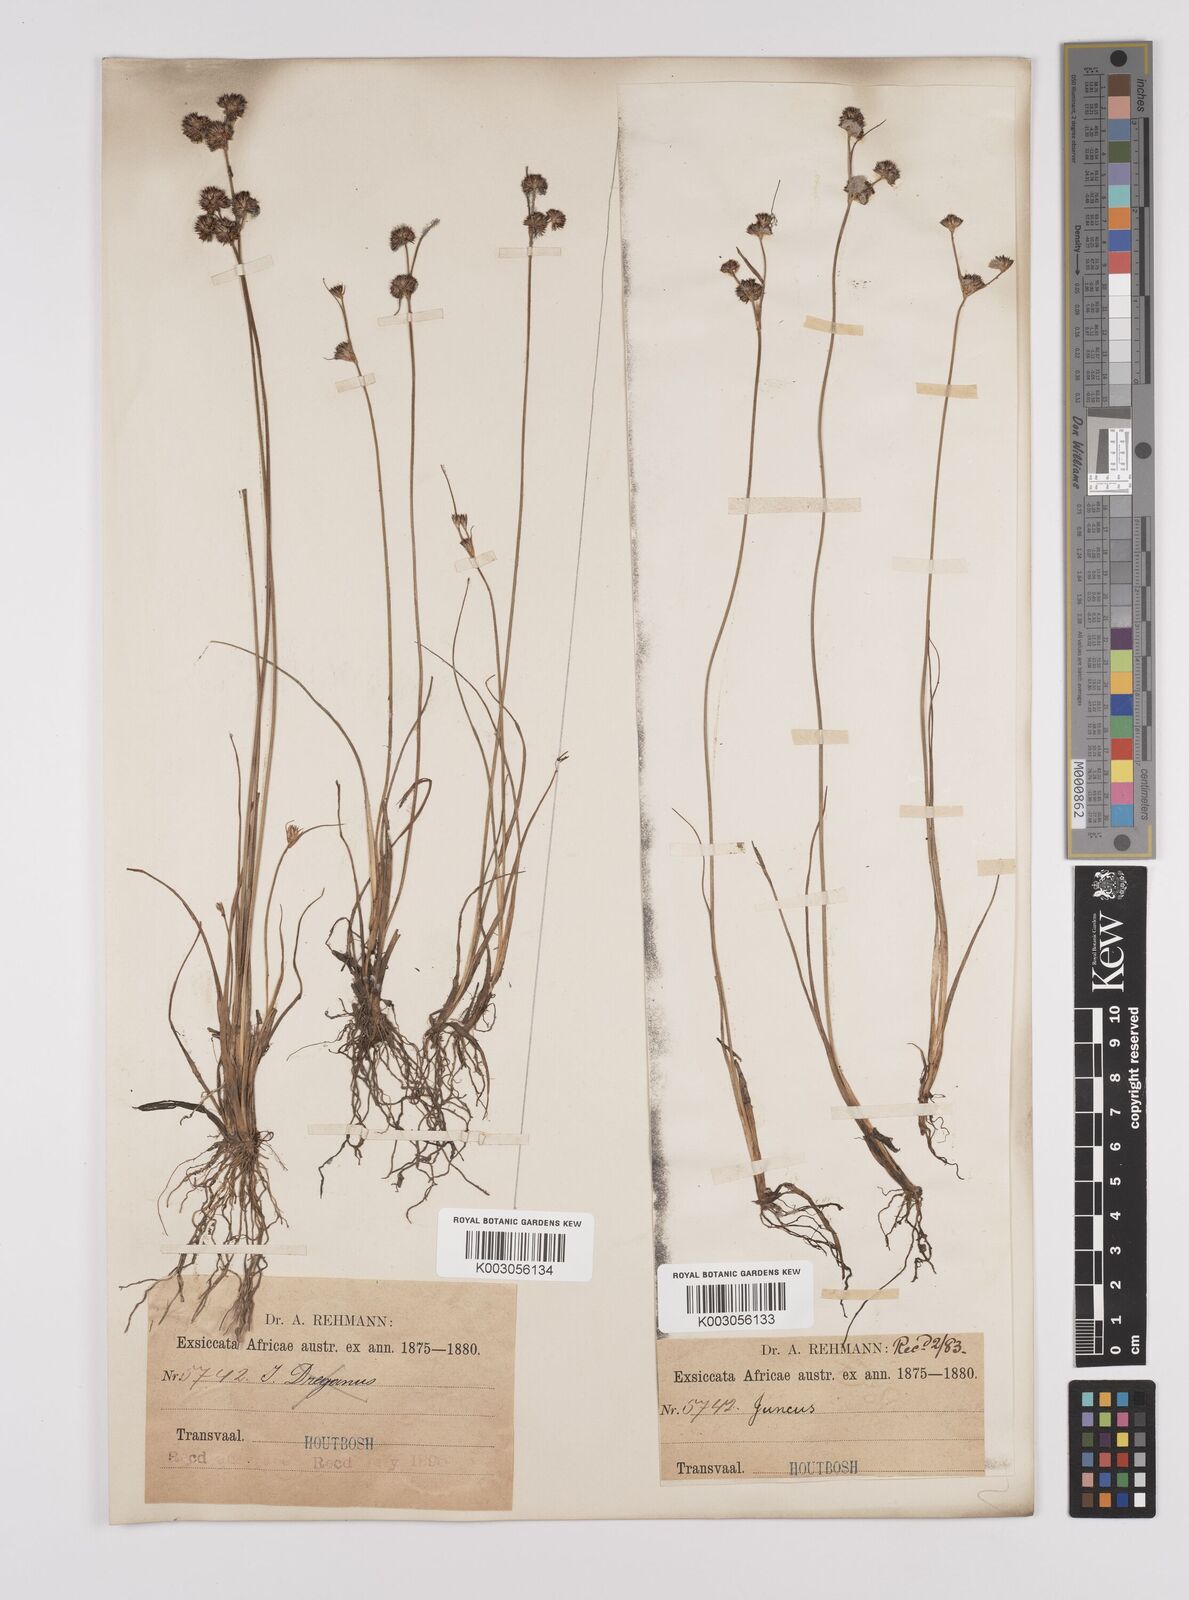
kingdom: Plantae
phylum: Tracheophyta
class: Liliopsida
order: Poales
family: Juncaceae
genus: Juncus
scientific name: Juncus
